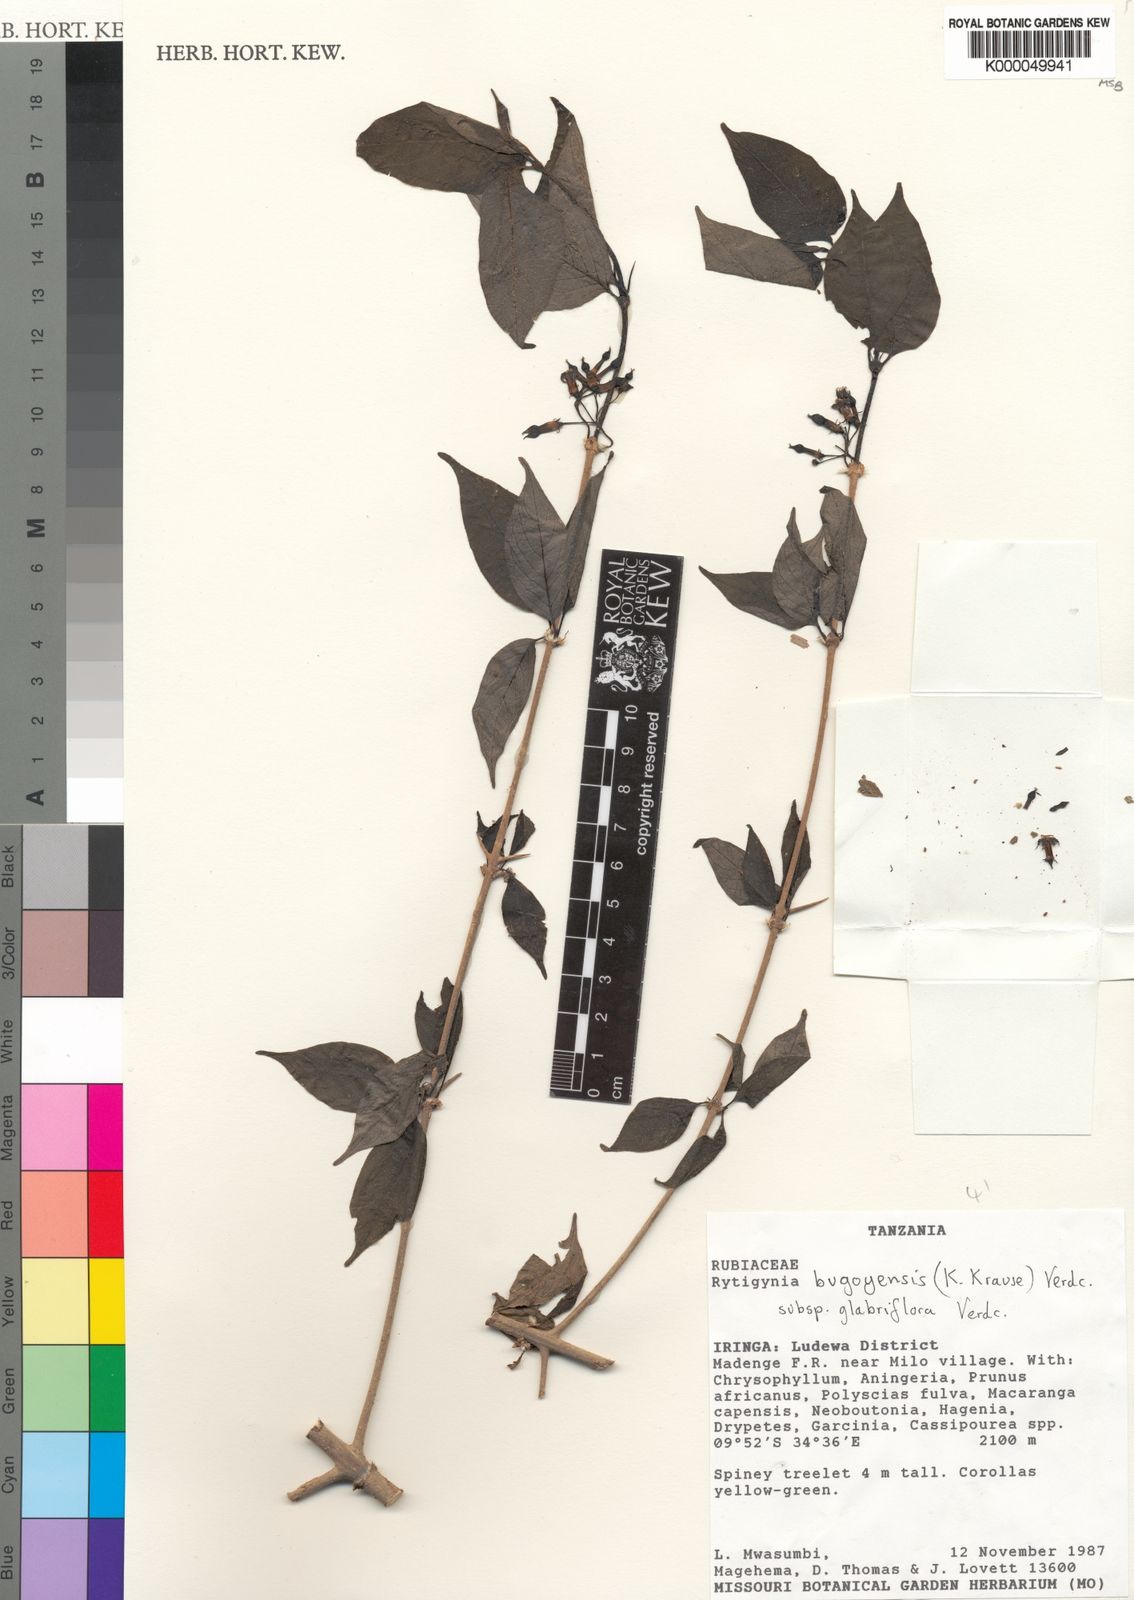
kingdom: Plantae
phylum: Tracheophyta
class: Magnoliopsida
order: Gentianales
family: Rubiaceae
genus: Rytigynia
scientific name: Rytigynia bugoyensis
